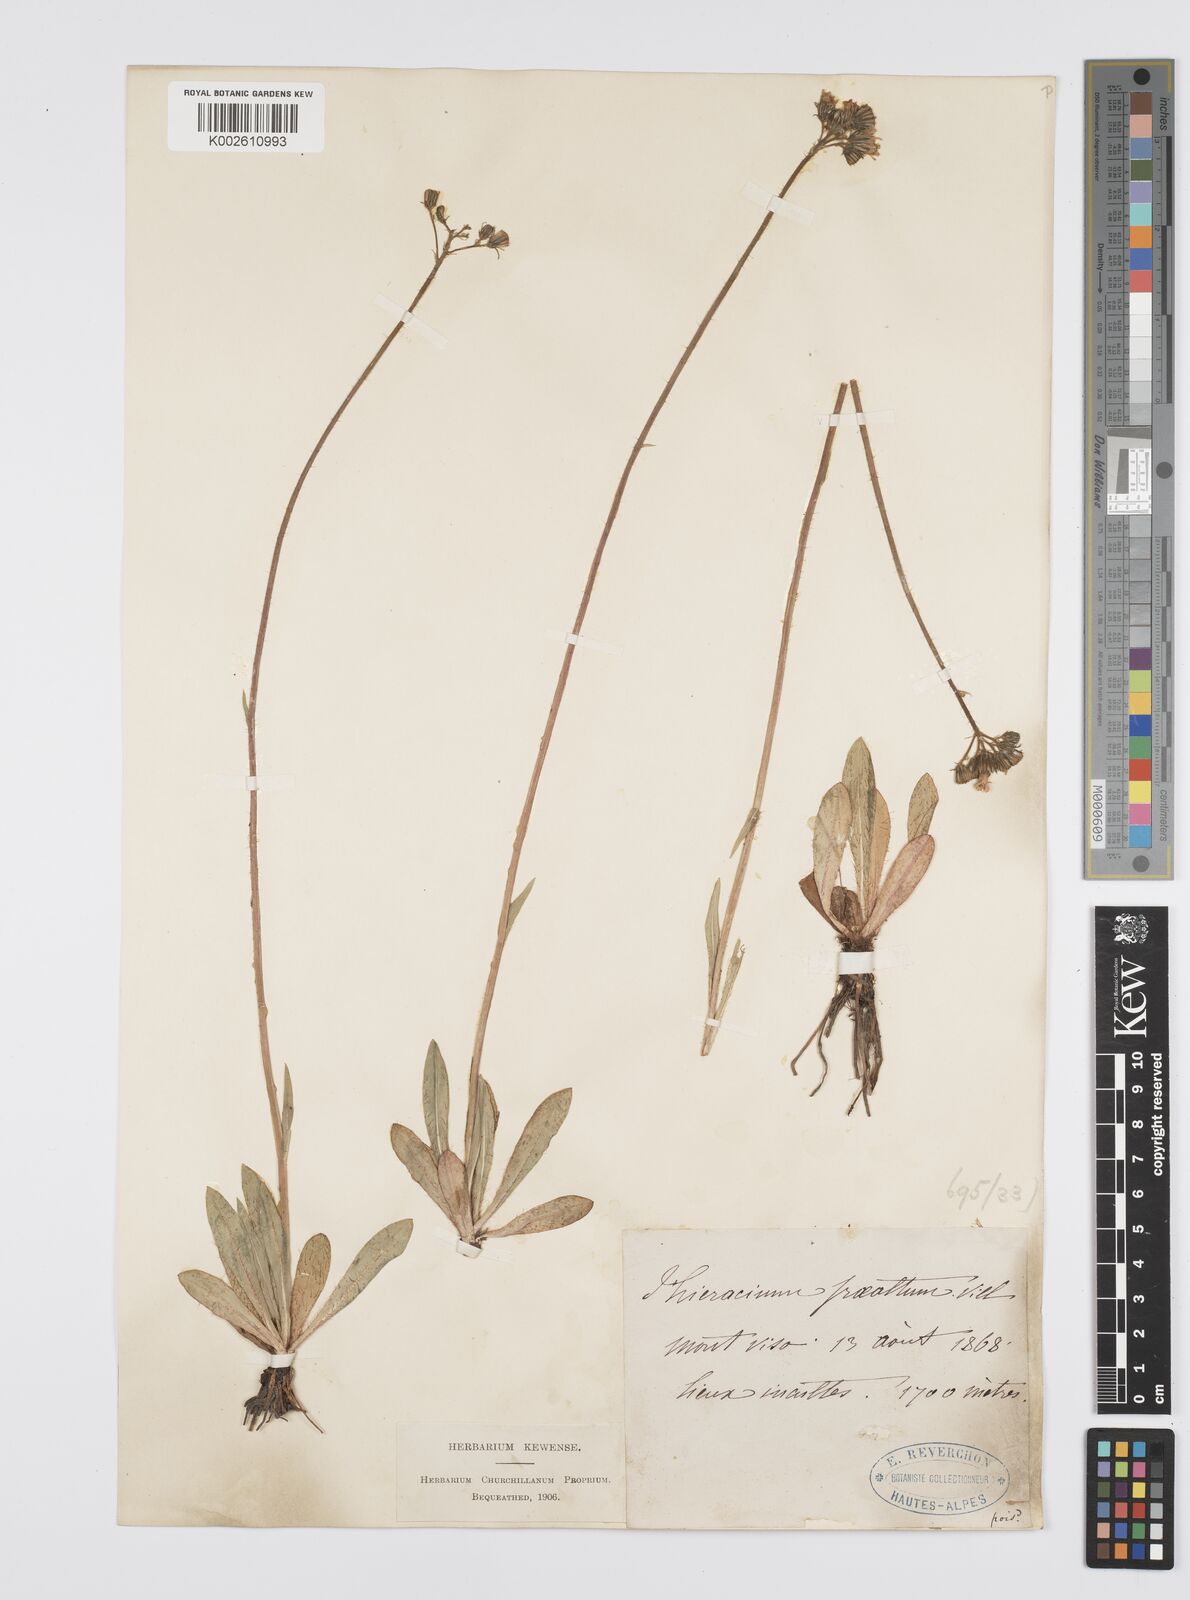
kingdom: Plantae
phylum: Tracheophyta
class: Magnoliopsida
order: Asterales
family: Asteraceae
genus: Pilosella
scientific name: Pilosella piloselloides
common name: Glaucous king-devil
